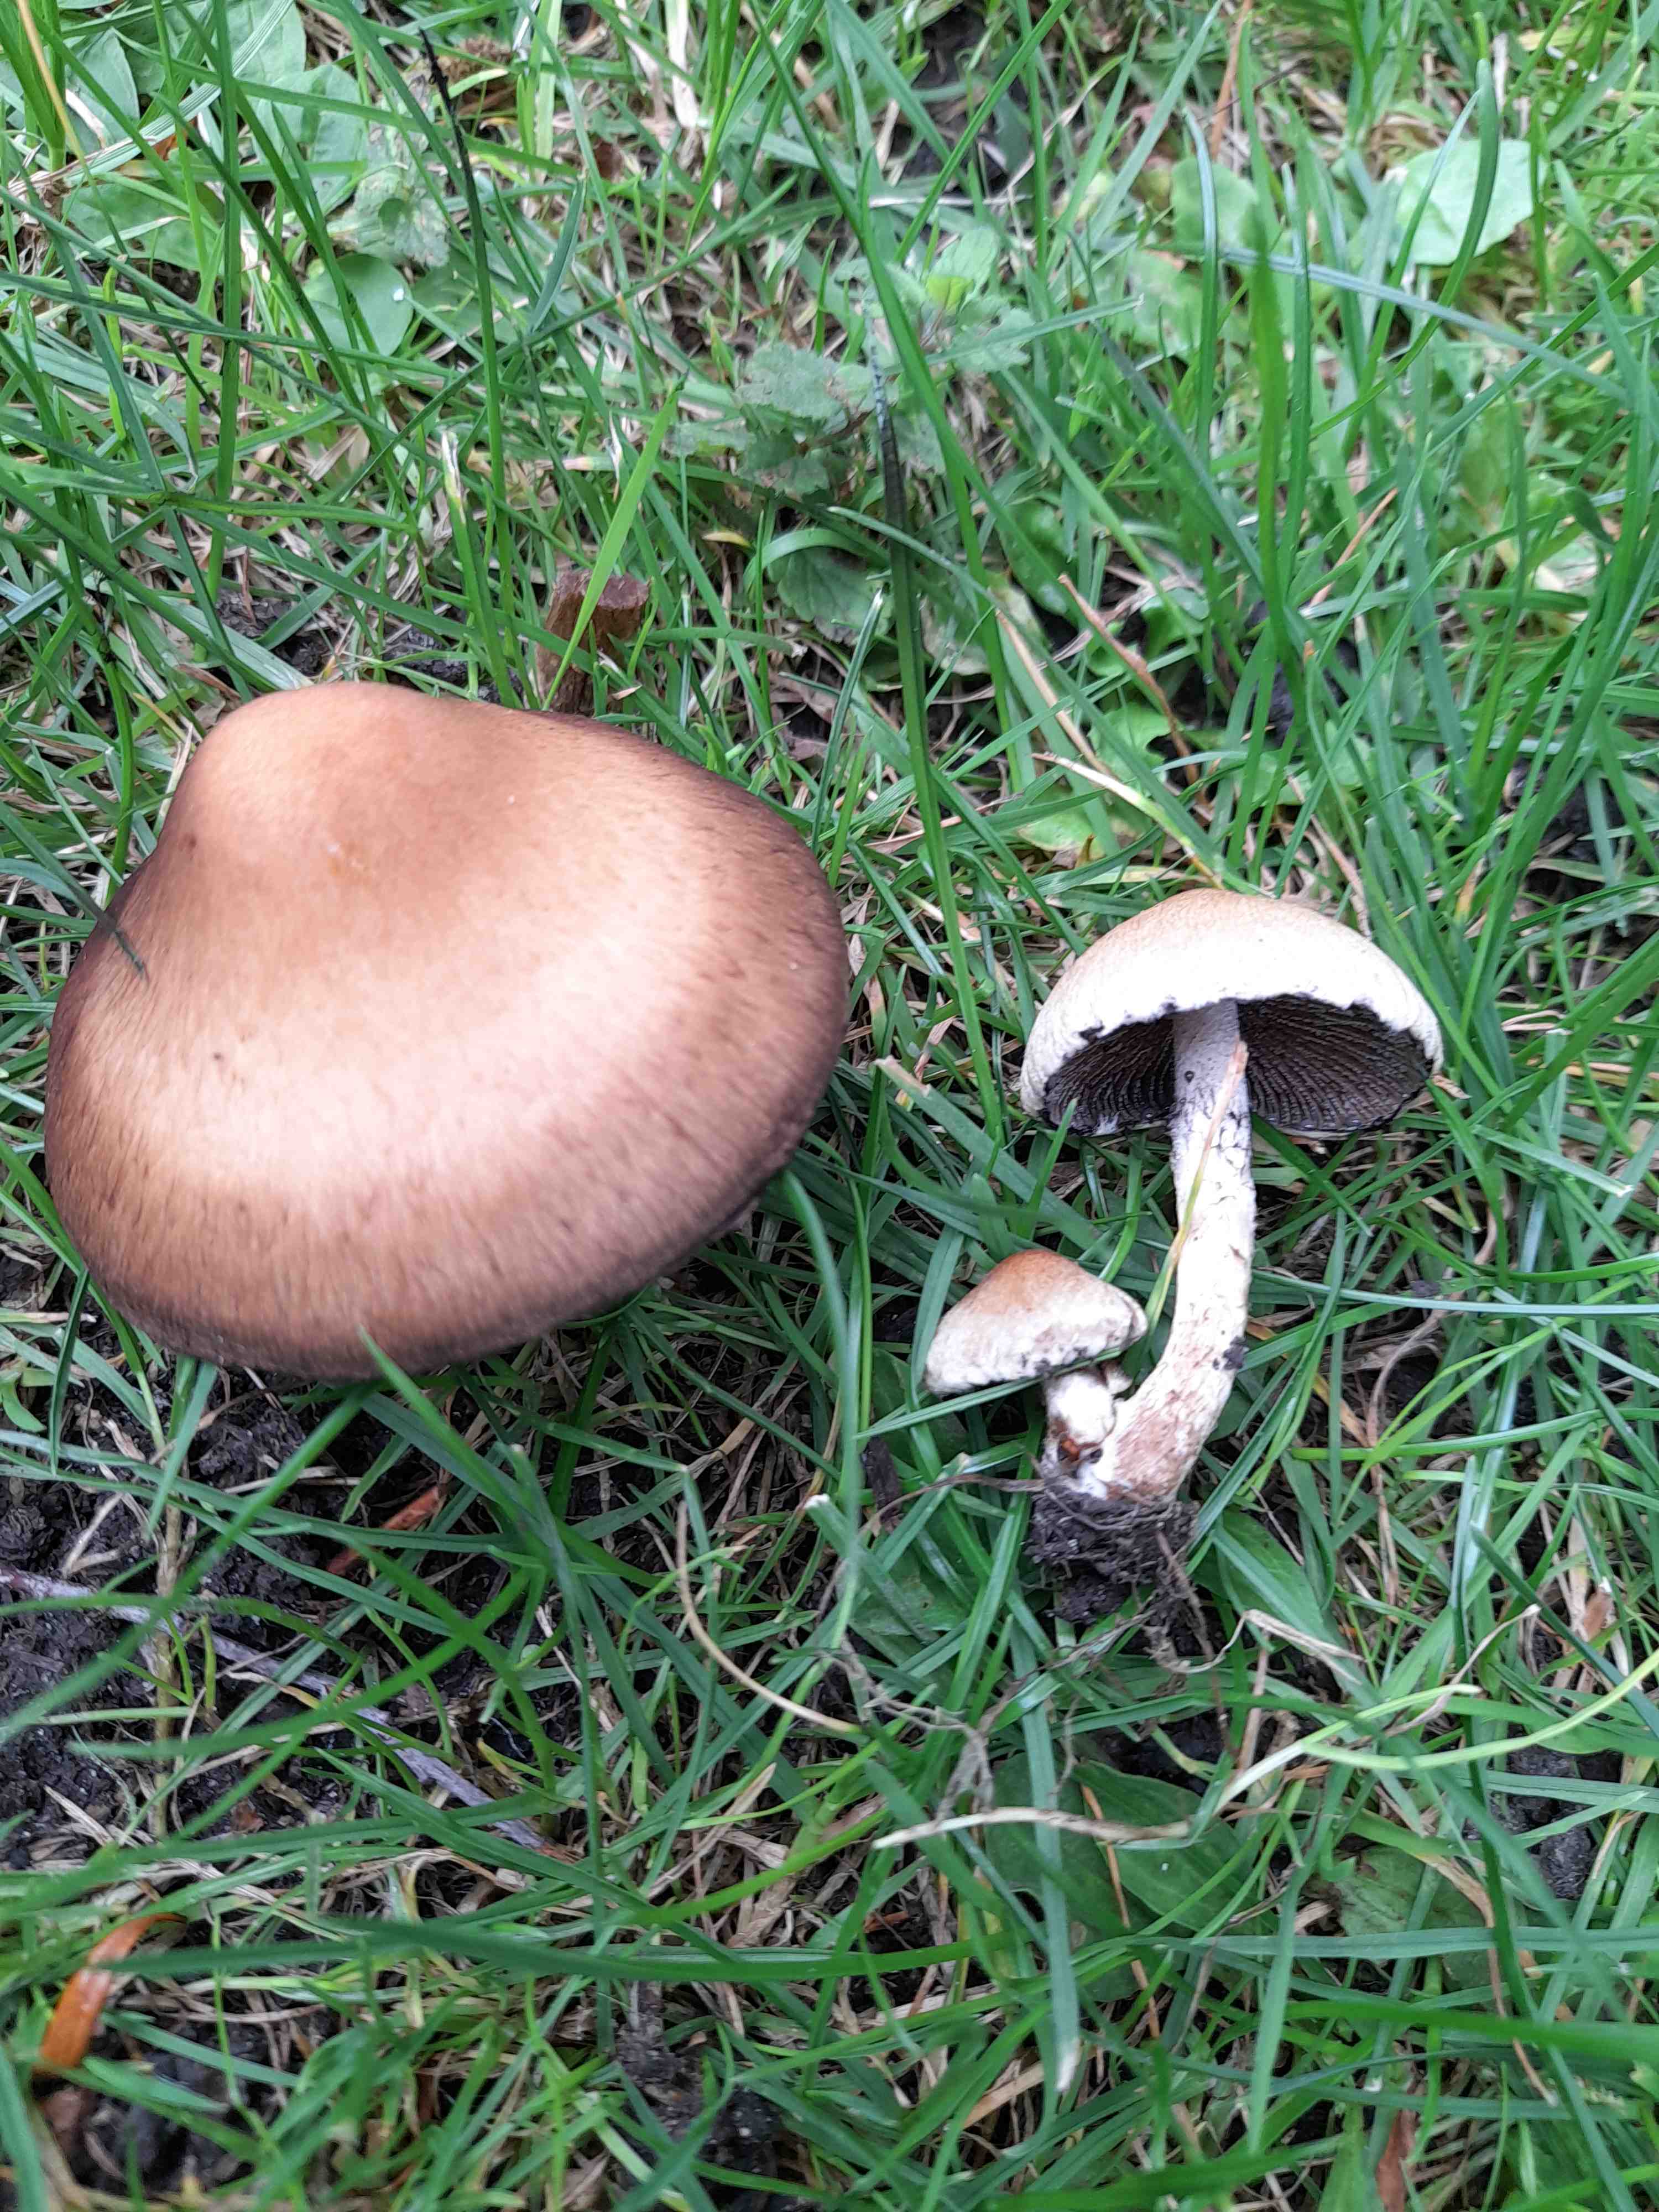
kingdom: Fungi
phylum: Basidiomycota
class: Agaricomycetes
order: Agaricales
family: Psathyrellaceae
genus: Lacrymaria
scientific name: Lacrymaria lacrymabunda
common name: grædende mørkhat
